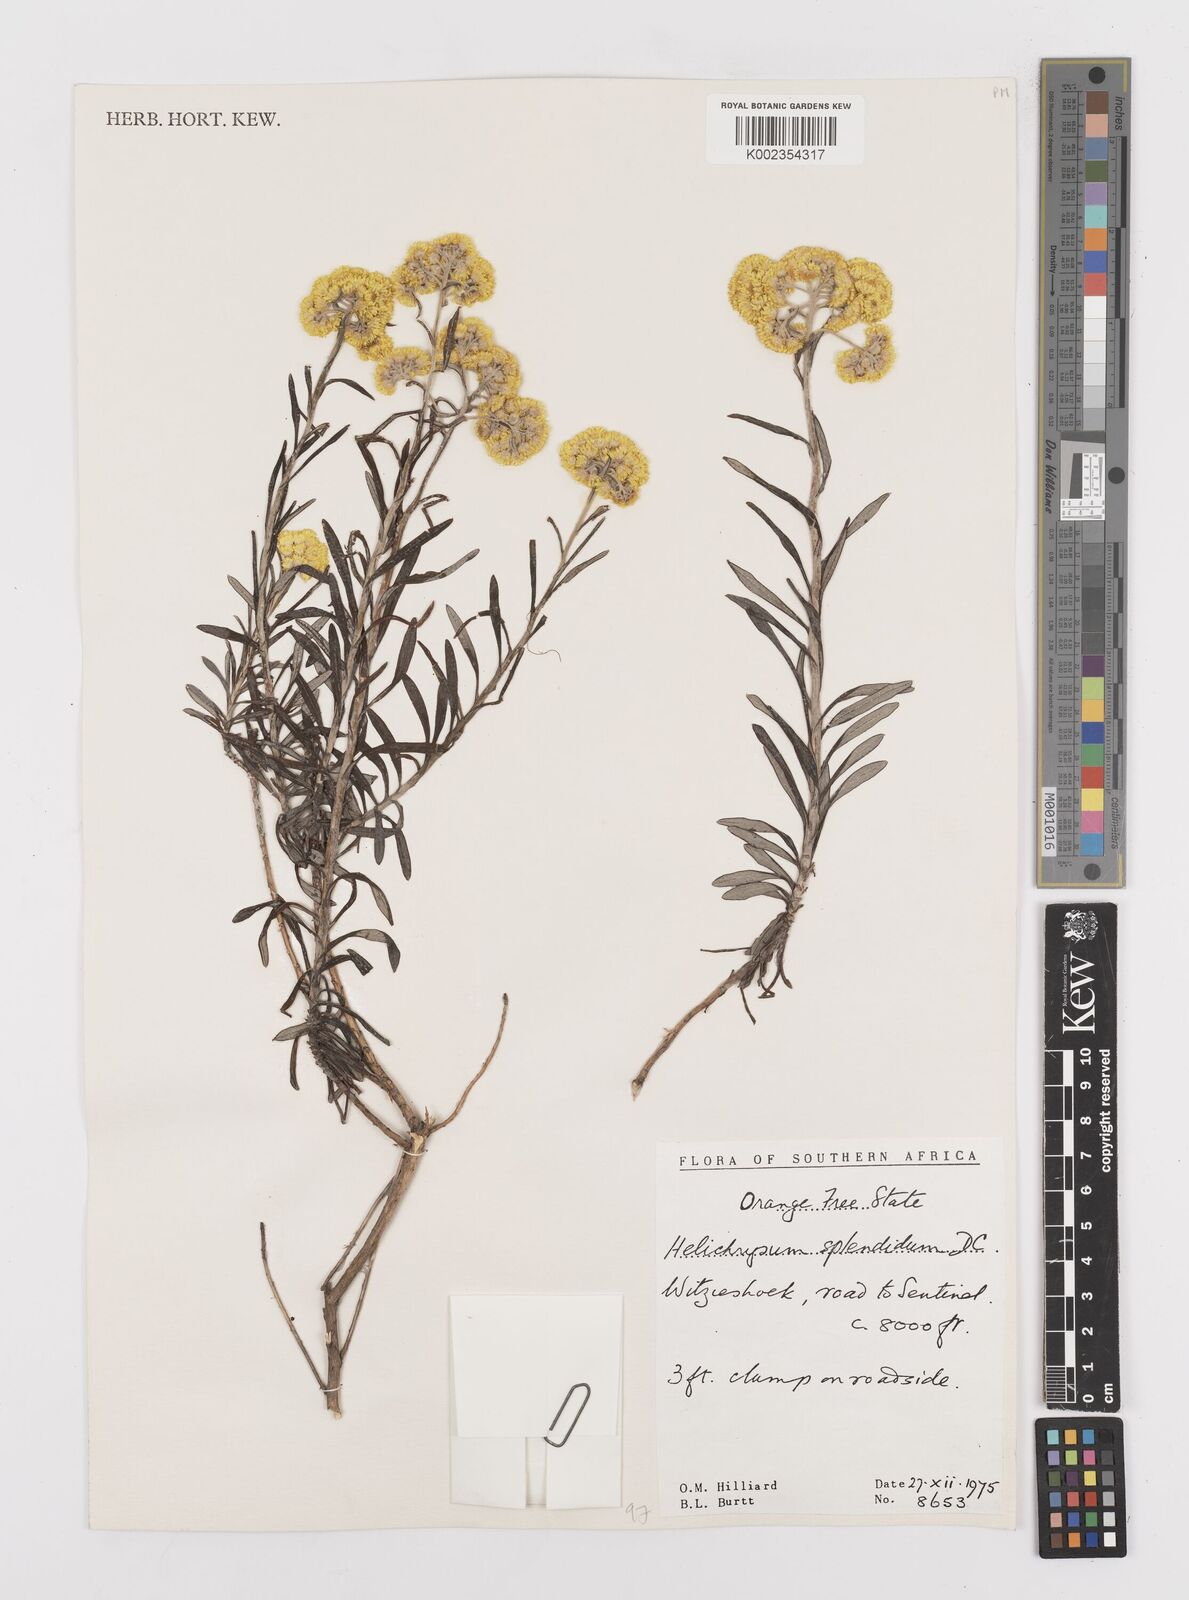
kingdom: Plantae
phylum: Tracheophyta
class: Magnoliopsida
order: Asterales
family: Asteraceae
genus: Helichrysum
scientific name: Helichrysum splendidum
